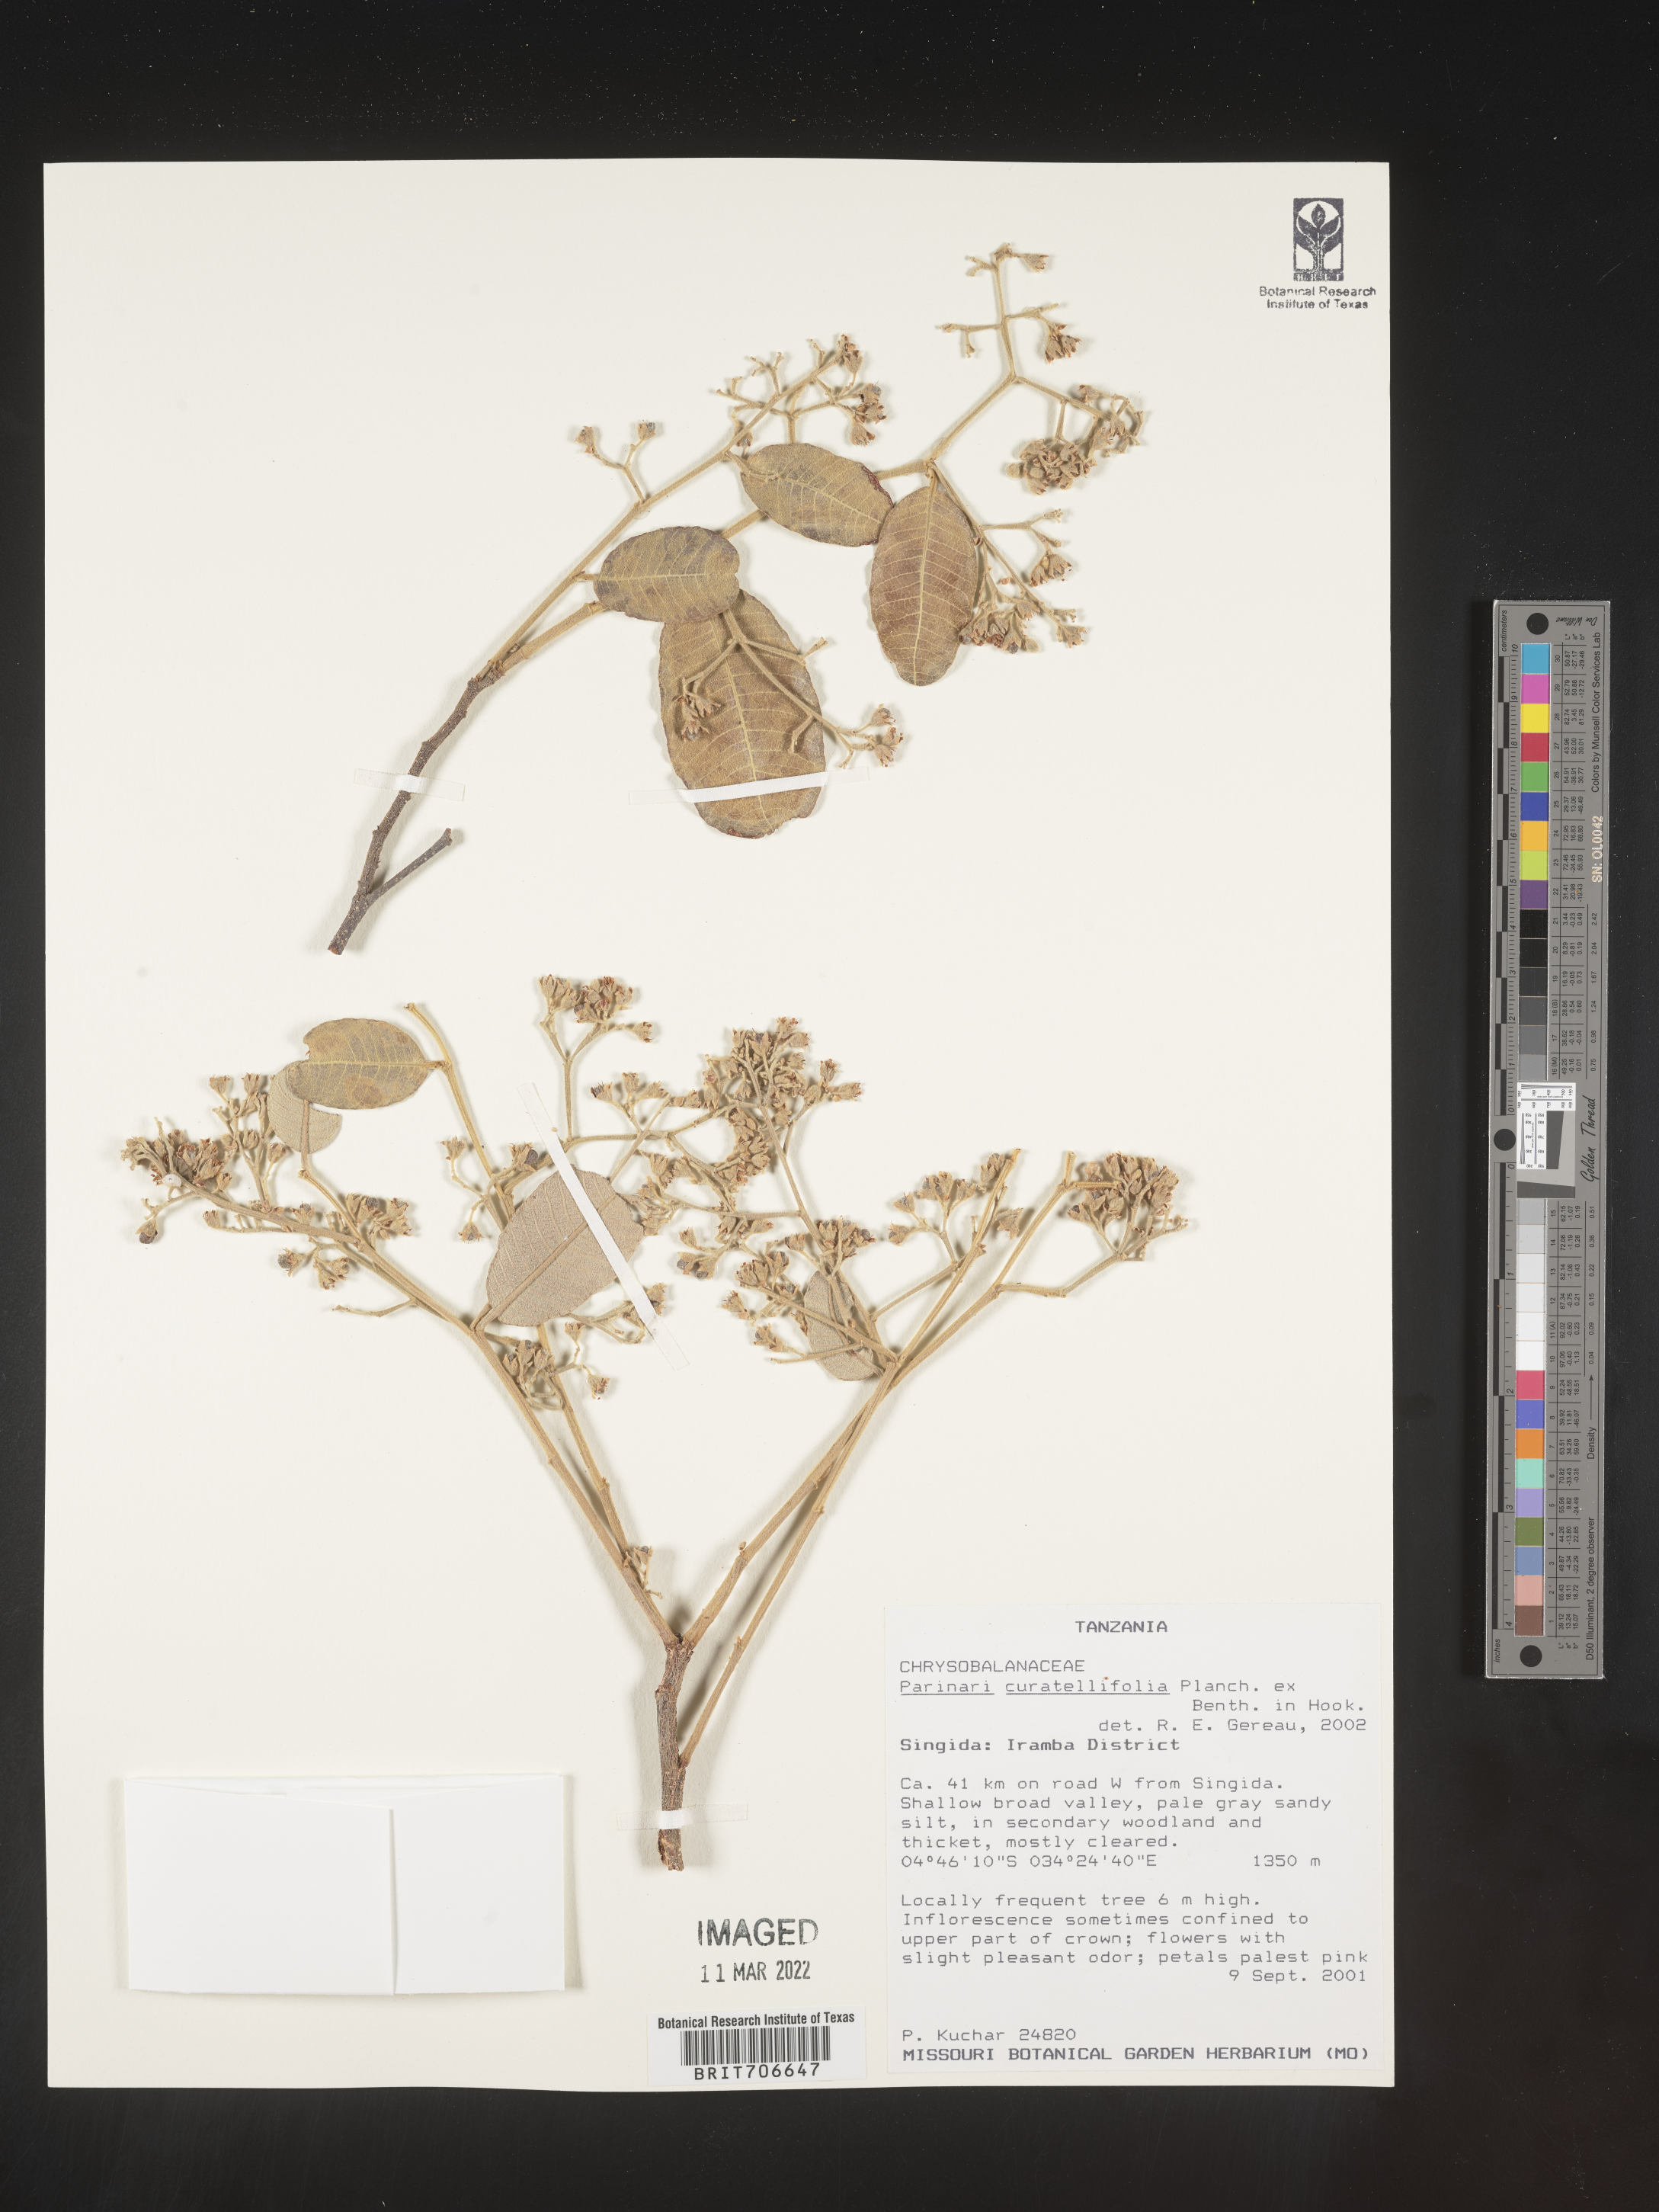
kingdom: Plantae
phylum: Tracheophyta
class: Magnoliopsida
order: Malpighiales
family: Chrysobalanaceae
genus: Parinari
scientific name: Parinari
